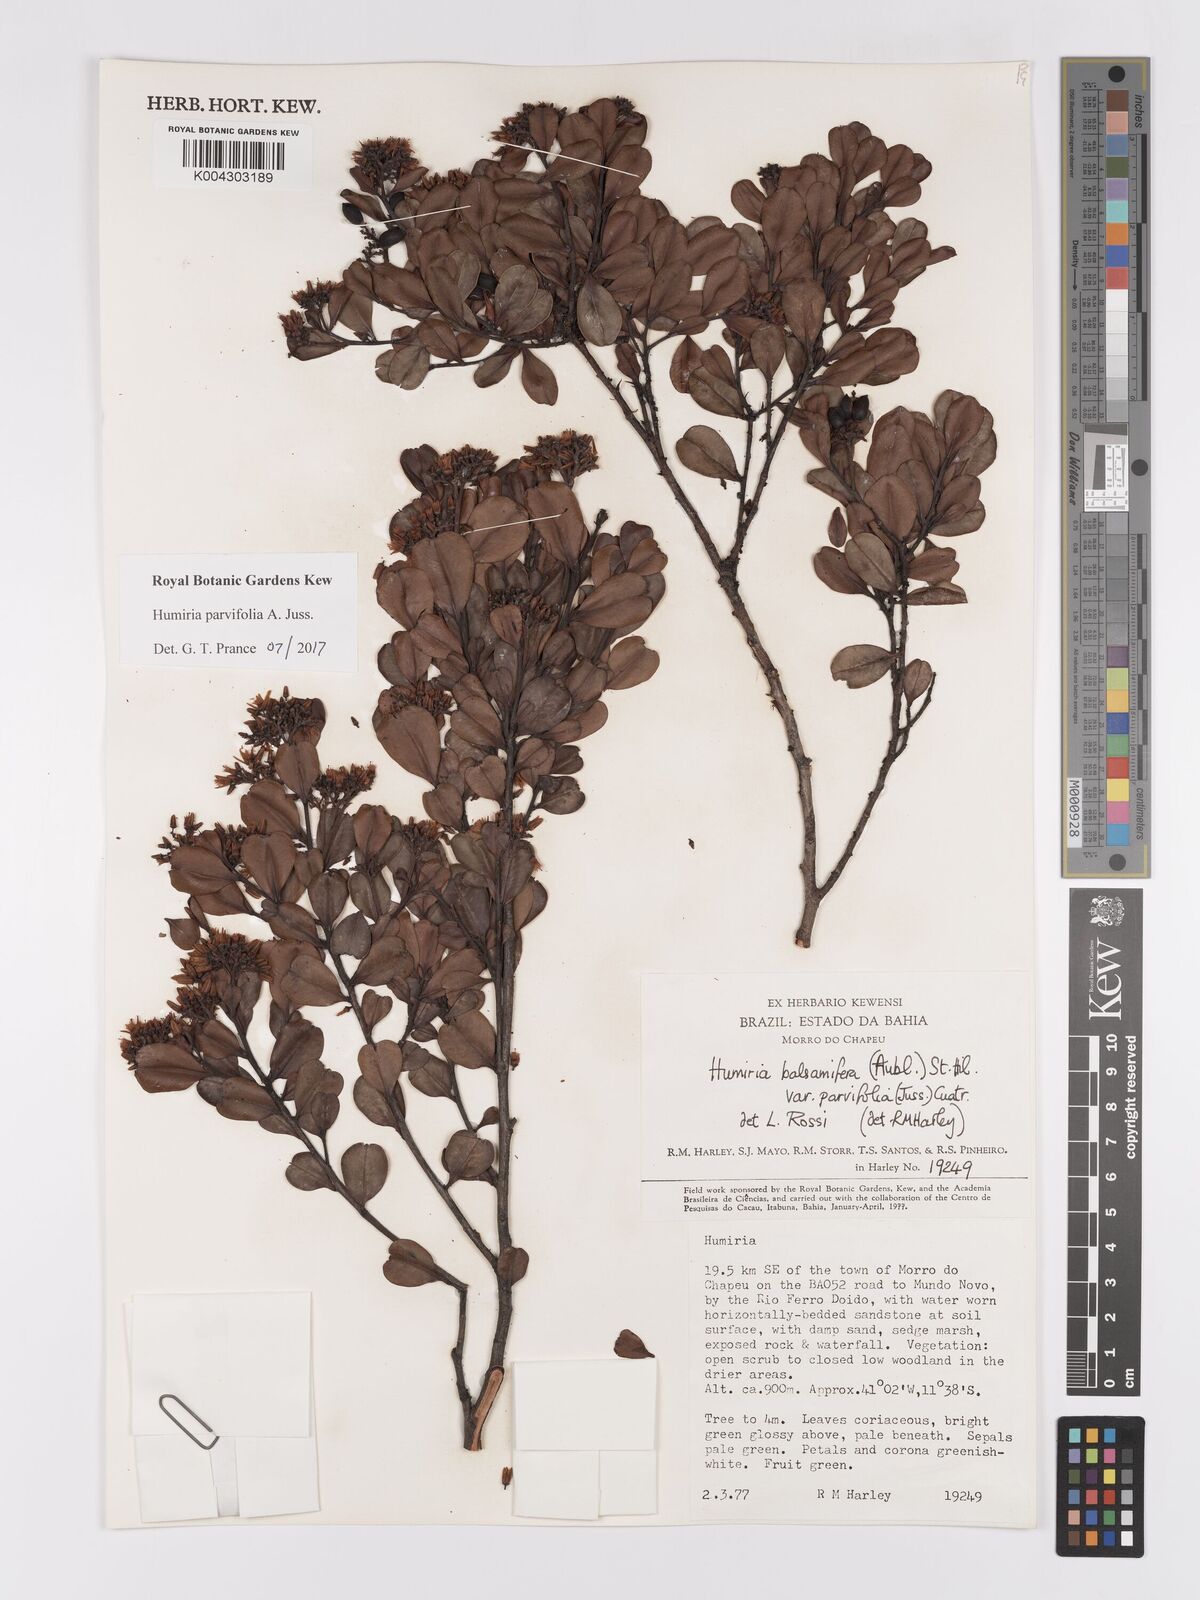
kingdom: Plantae
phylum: Tracheophyta
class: Magnoliopsida
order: Malpighiales
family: Humiriaceae
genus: Humiria
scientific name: Humiria parvifolia
